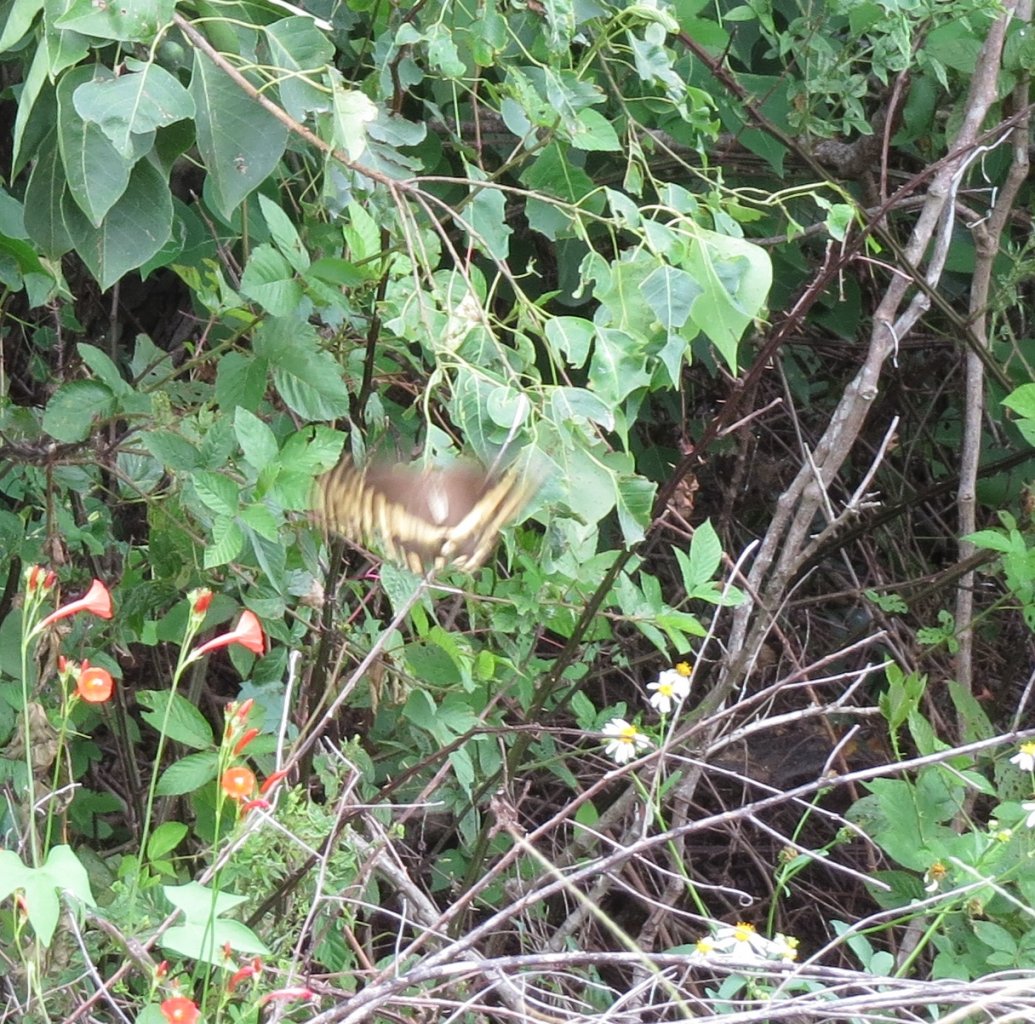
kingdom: Animalia
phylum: Arthropoda
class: Insecta
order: Lepidoptera
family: Papilionidae
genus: Pterourus
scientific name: Pterourus palamedes
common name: Palamedes Swallowtail
